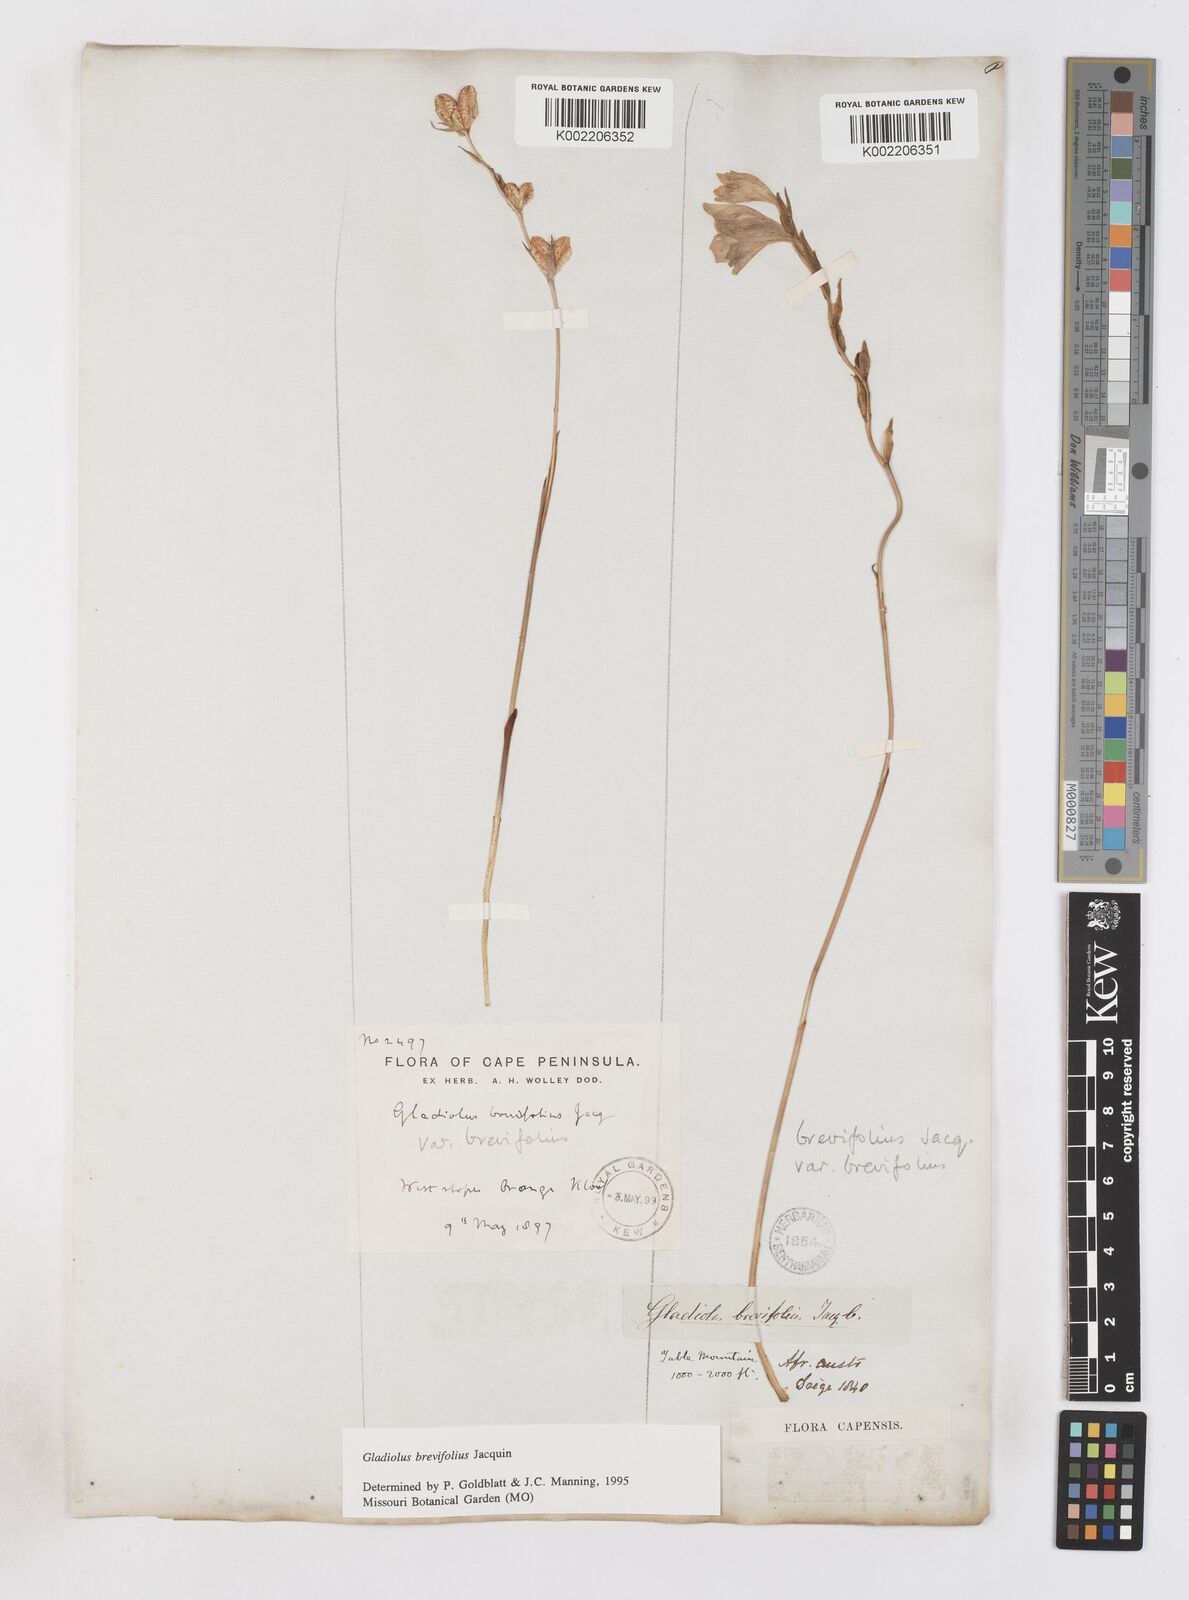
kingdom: Plantae
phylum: Tracheophyta
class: Liliopsida
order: Asparagales
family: Iridaceae
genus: Gladiolus
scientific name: Gladiolus brevifolius
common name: March pypie
